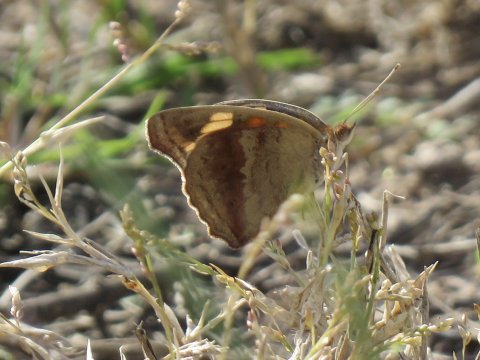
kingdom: Animalia
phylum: Arthropoda
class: Insecta
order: Lepidoptera
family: Nymphalidae
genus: Junonia
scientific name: Junonia coenia
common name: Common Buckeye
